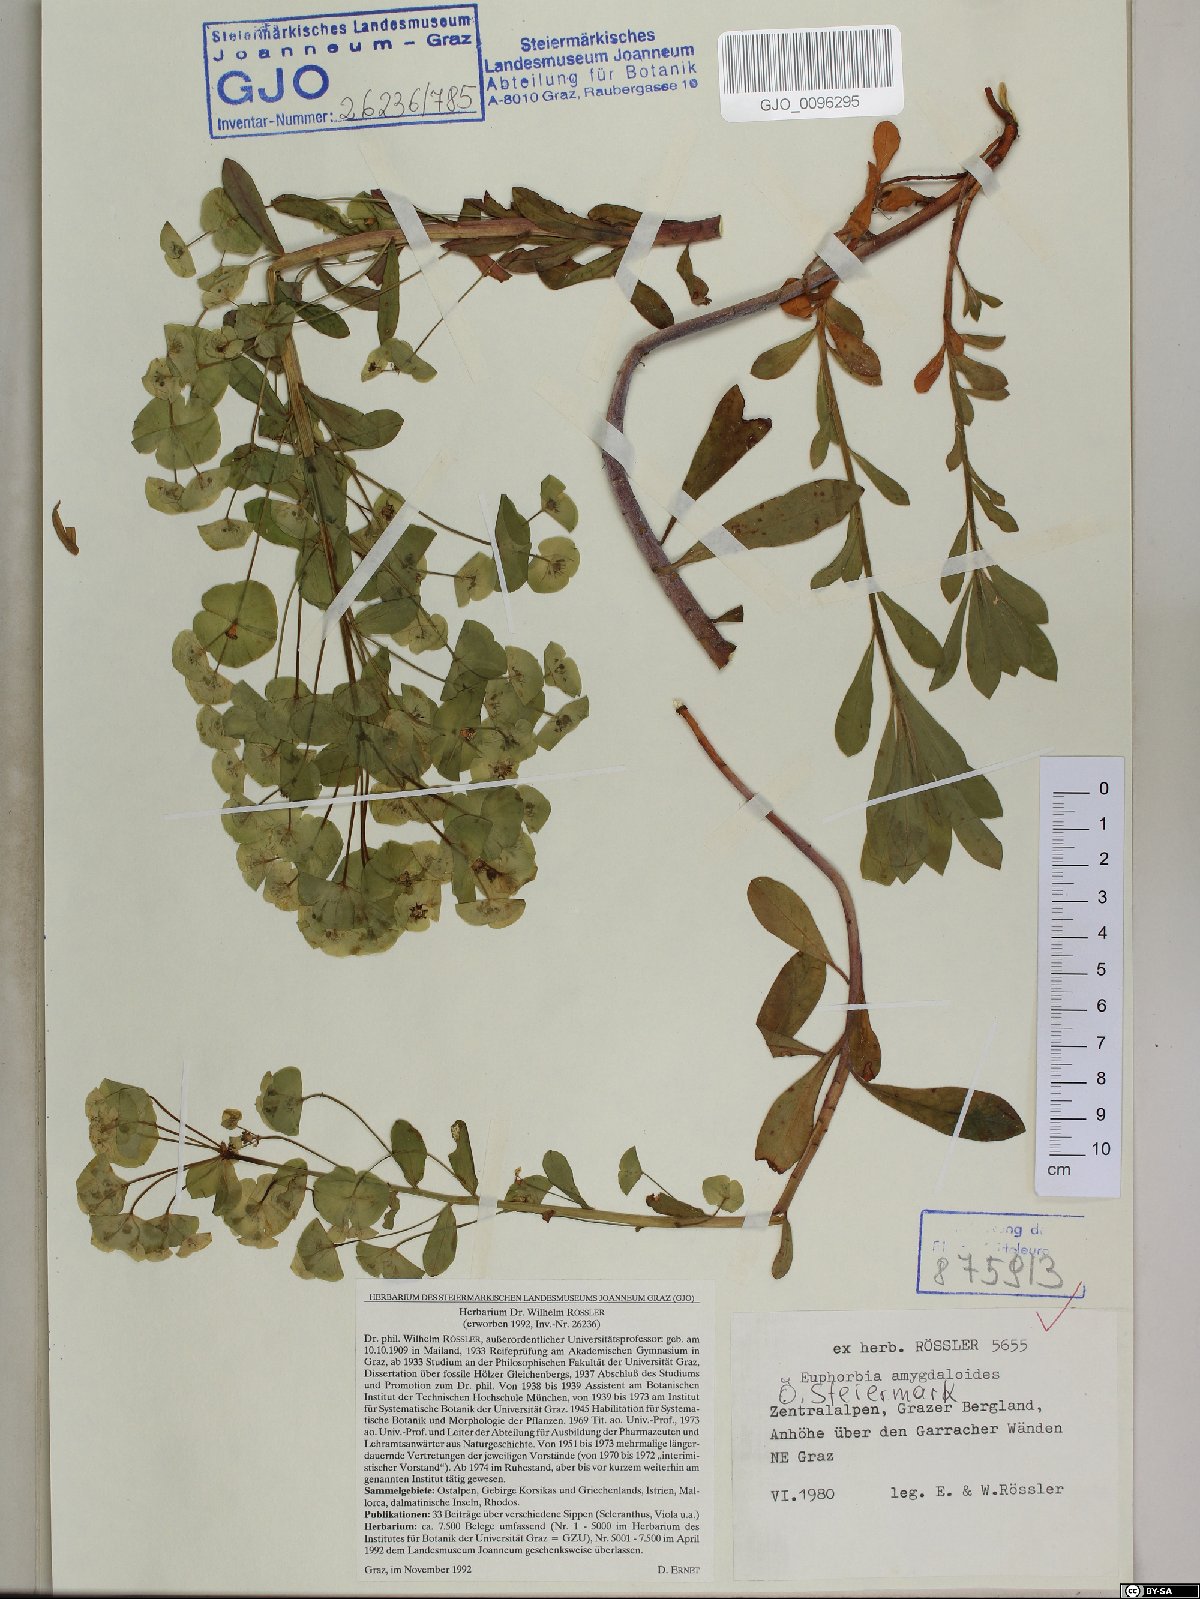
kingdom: Plantae
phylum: Tracheophyta
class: Magnoliopsida
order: Malpighiales
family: Euphorbiaceae
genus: Euphorbia
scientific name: Euphorbia amygdaloides
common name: Wood spurge
